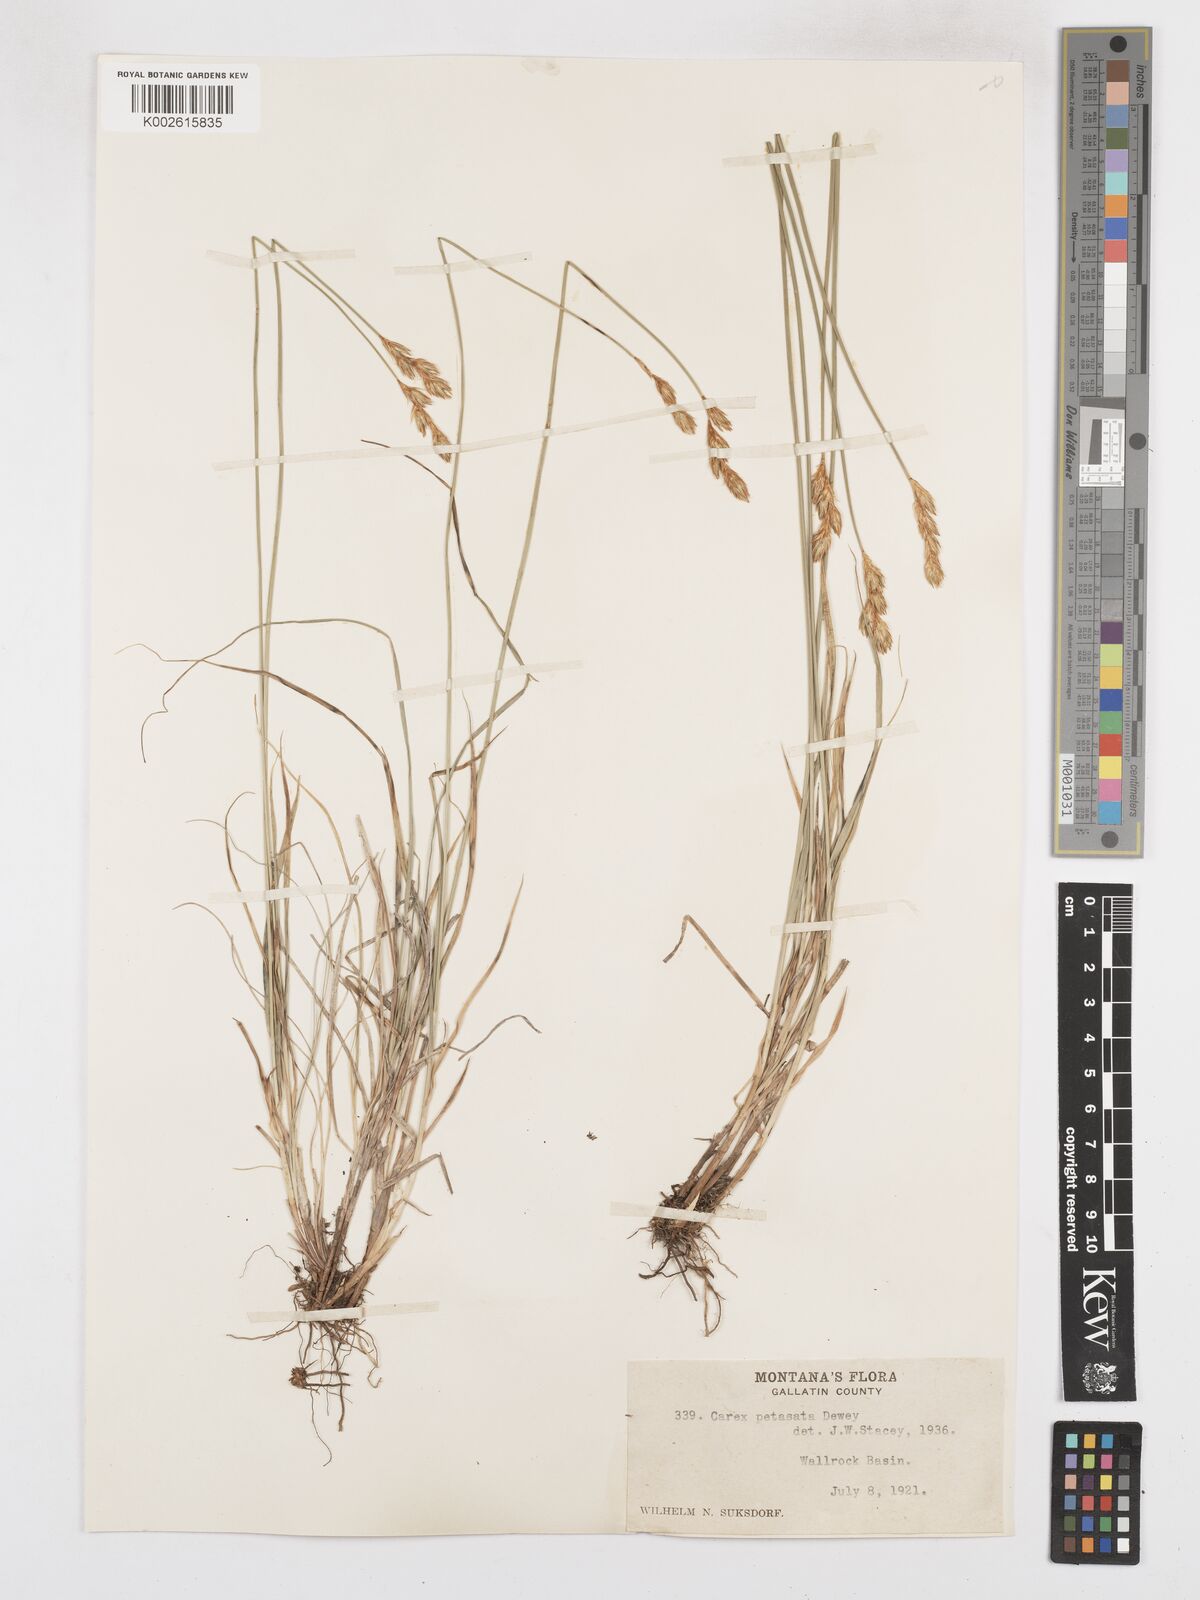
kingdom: Plantae
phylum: Tracheophyta
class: Liliopsida
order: Poales
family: Cyperaceae
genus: Carex
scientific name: Carex petasata
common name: Liddon's sedge
